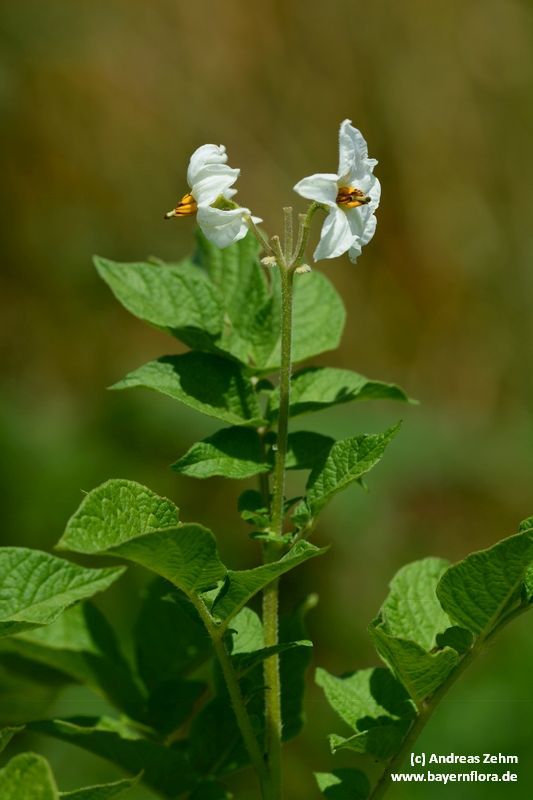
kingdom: Plantae
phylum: Tracheophyta
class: Magnoliopsida
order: Solanales
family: Solanaceae
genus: Solanum
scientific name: Solanum tuberosum
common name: Potato
